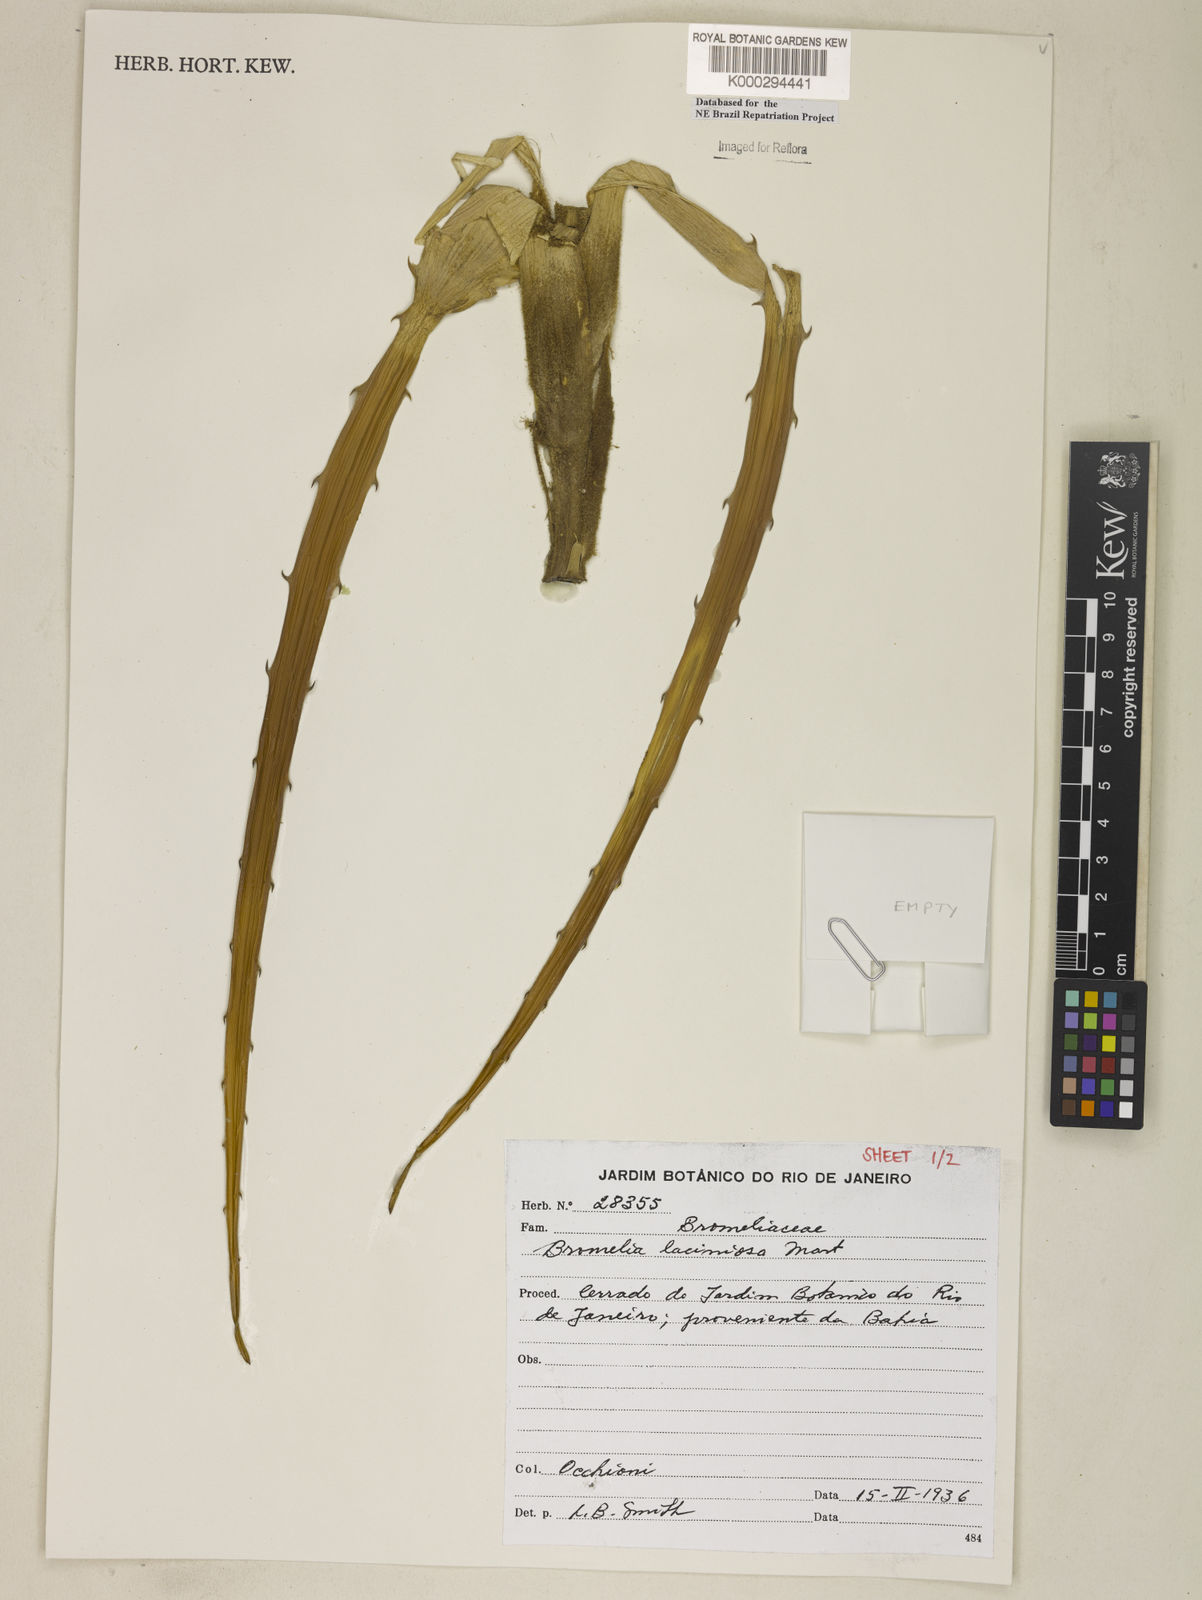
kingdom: Plantae
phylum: Tracheophyta
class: Liliopsida
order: Poales
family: Bromeliaceae
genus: Bromelia
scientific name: Bromelia laciniosa
